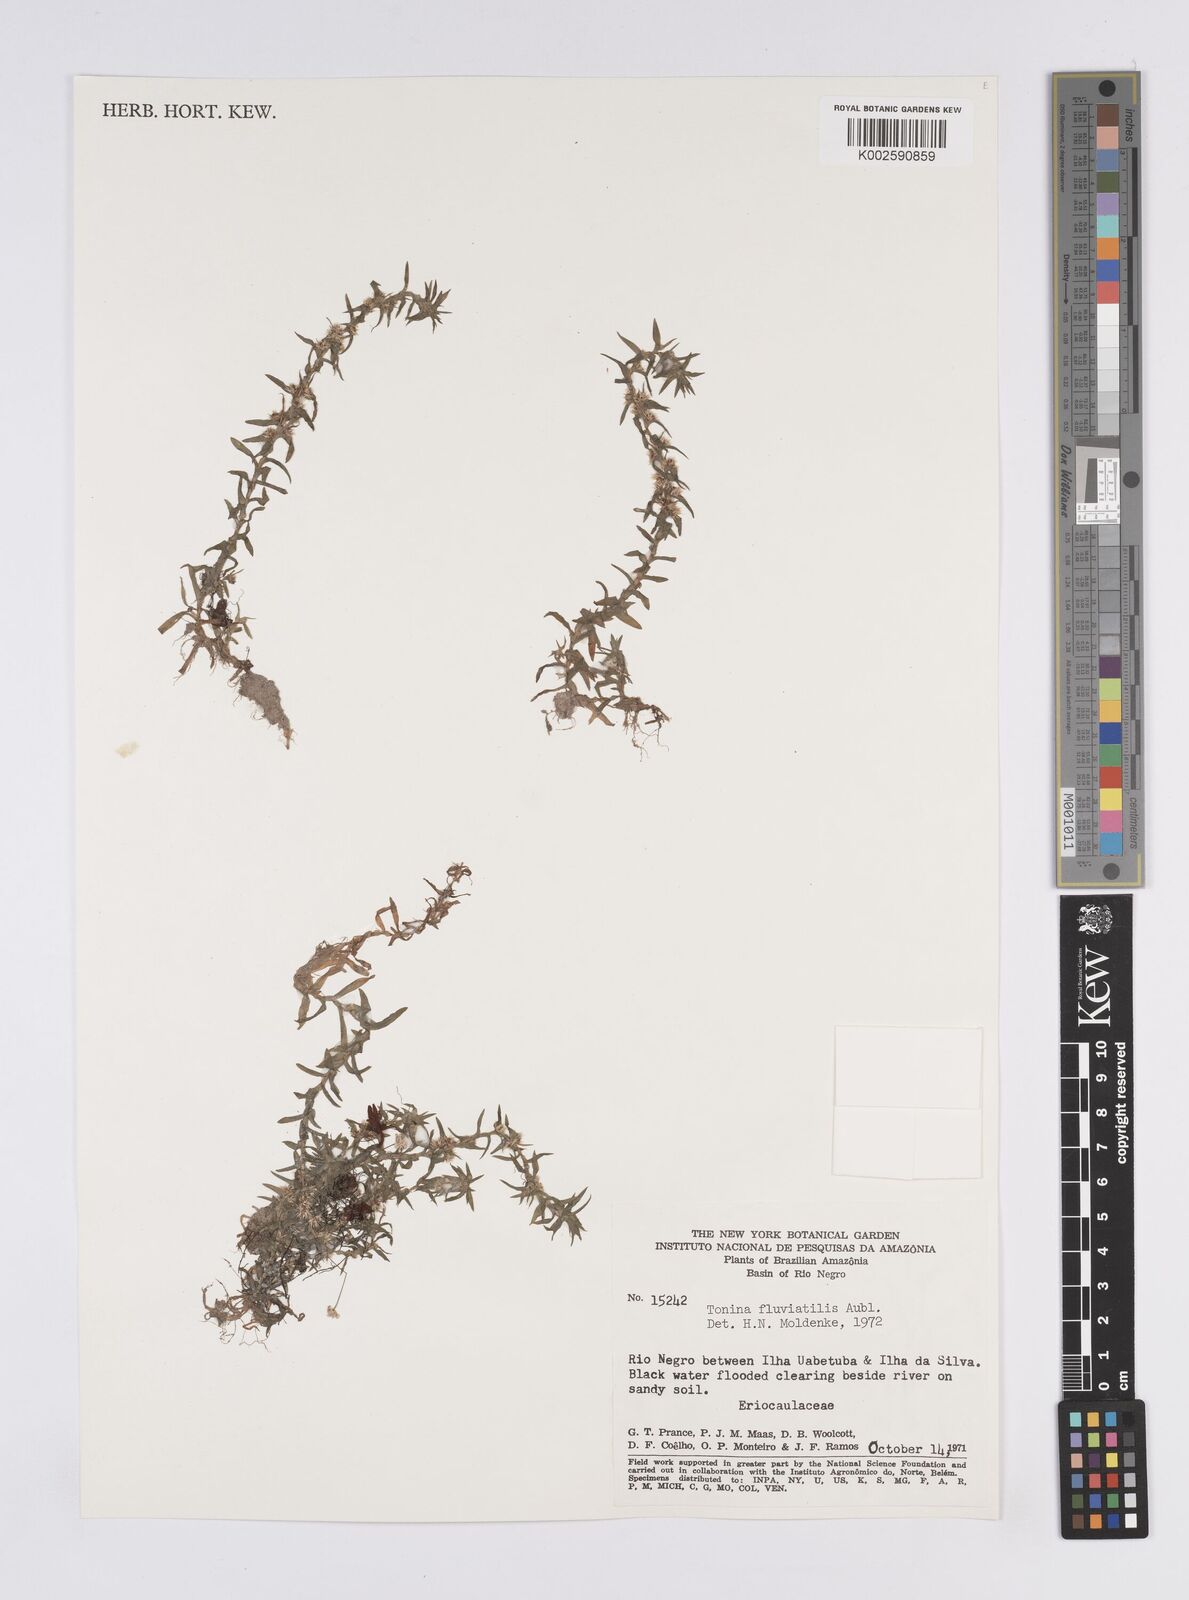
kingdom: Plantae
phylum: Tracheophyta
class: Liliopsida
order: Poales
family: Eriocaulaceae
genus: Paepalanthus
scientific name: Paepalanthus fluviatilis
